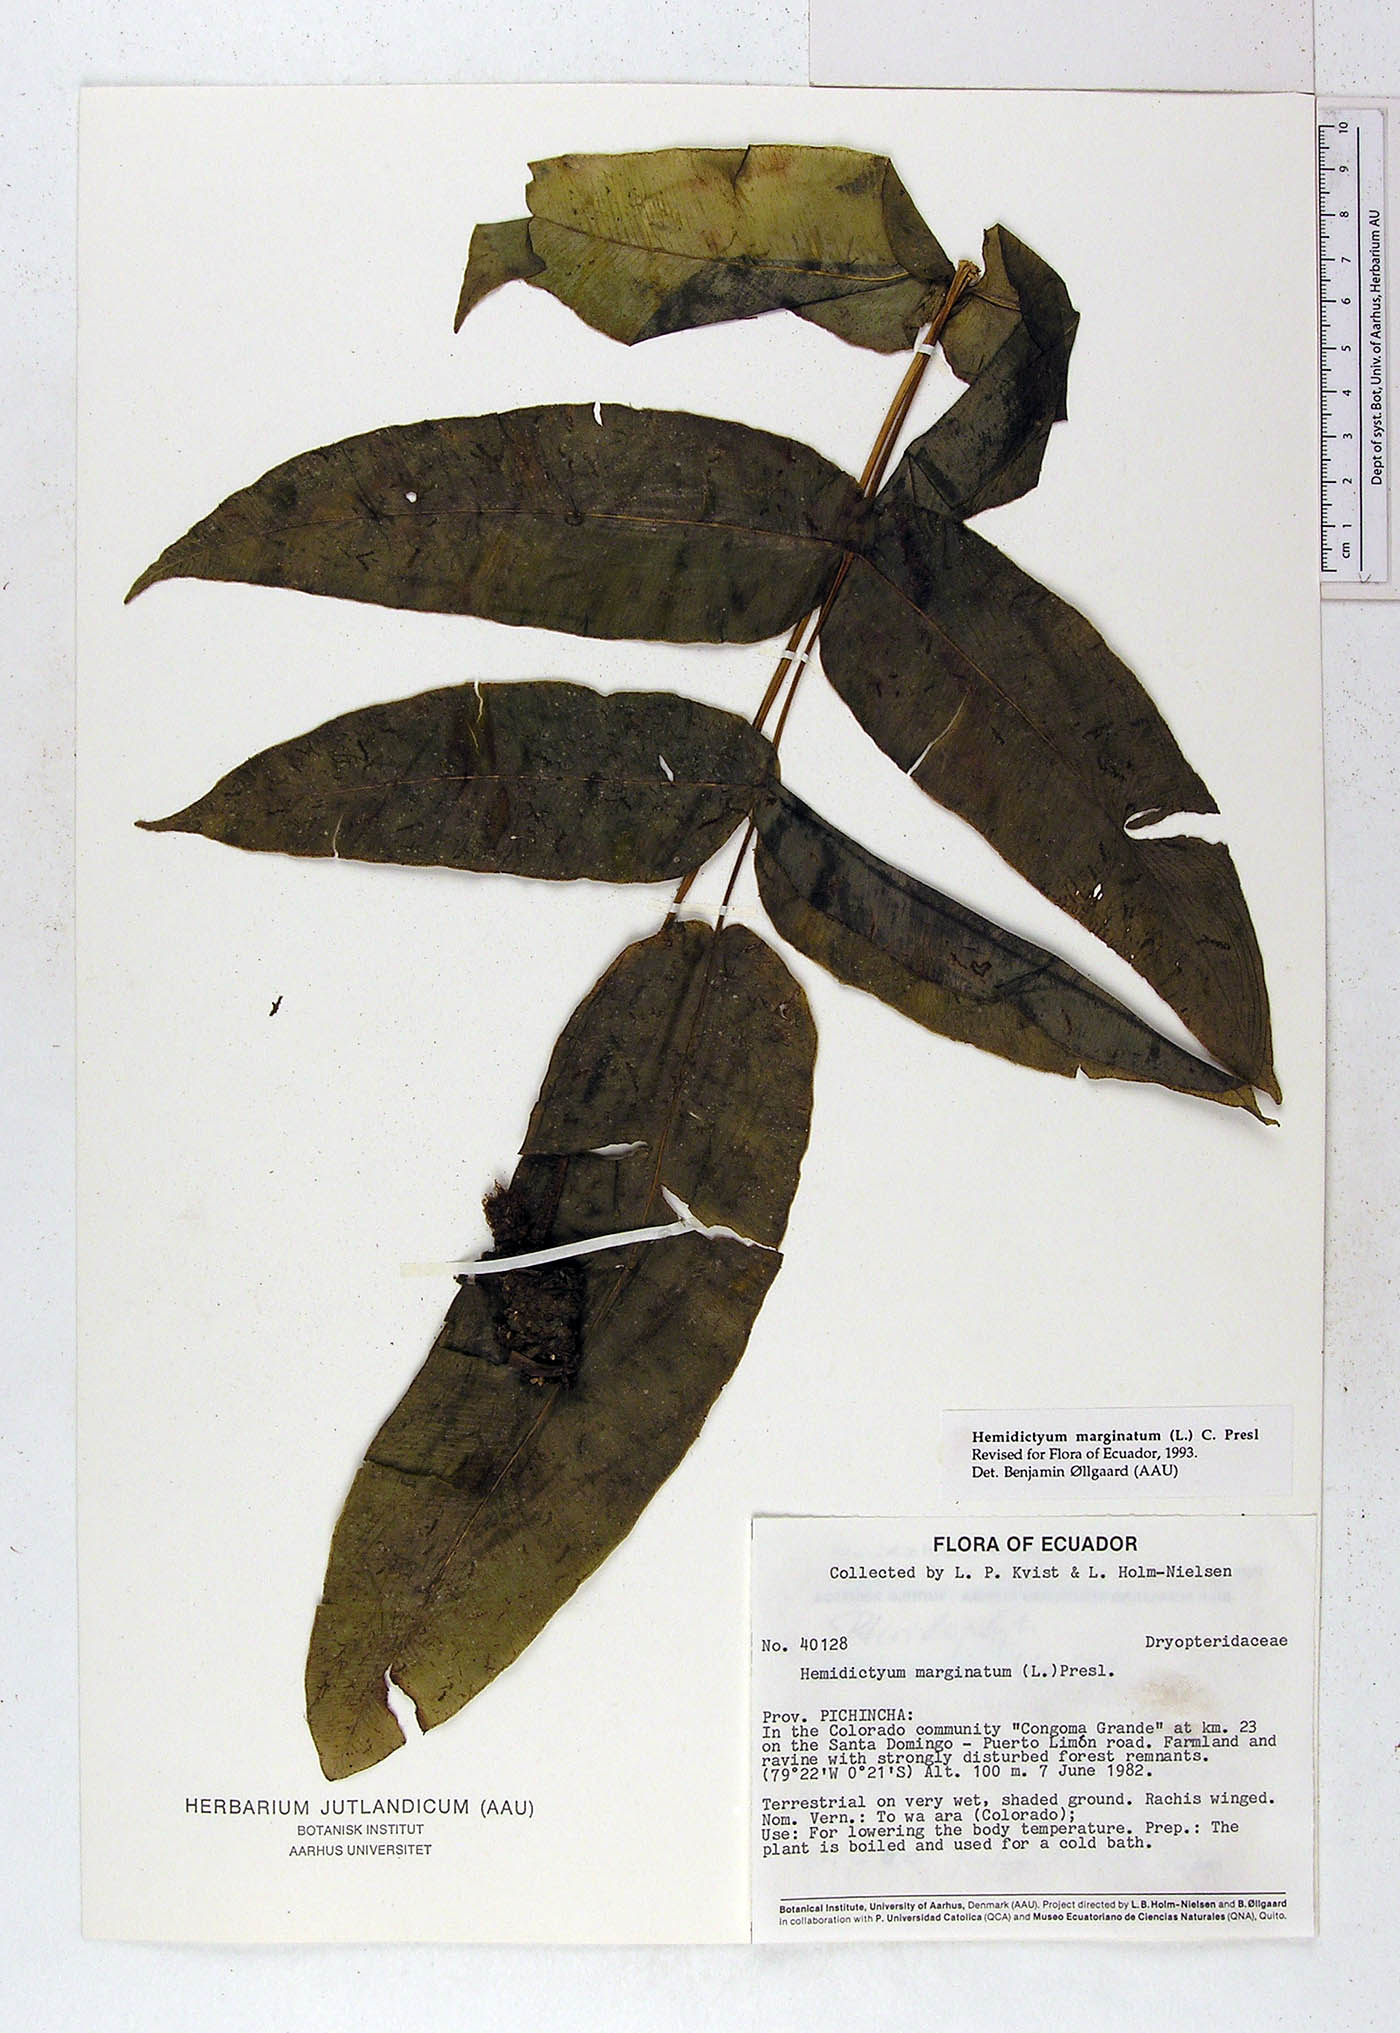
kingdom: Plantae
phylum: Tracheophyta
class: Polypodiopsida
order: Polypodiales
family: Hemidictyaceae
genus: Hemidictyum
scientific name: Hemidictyum marginatum
